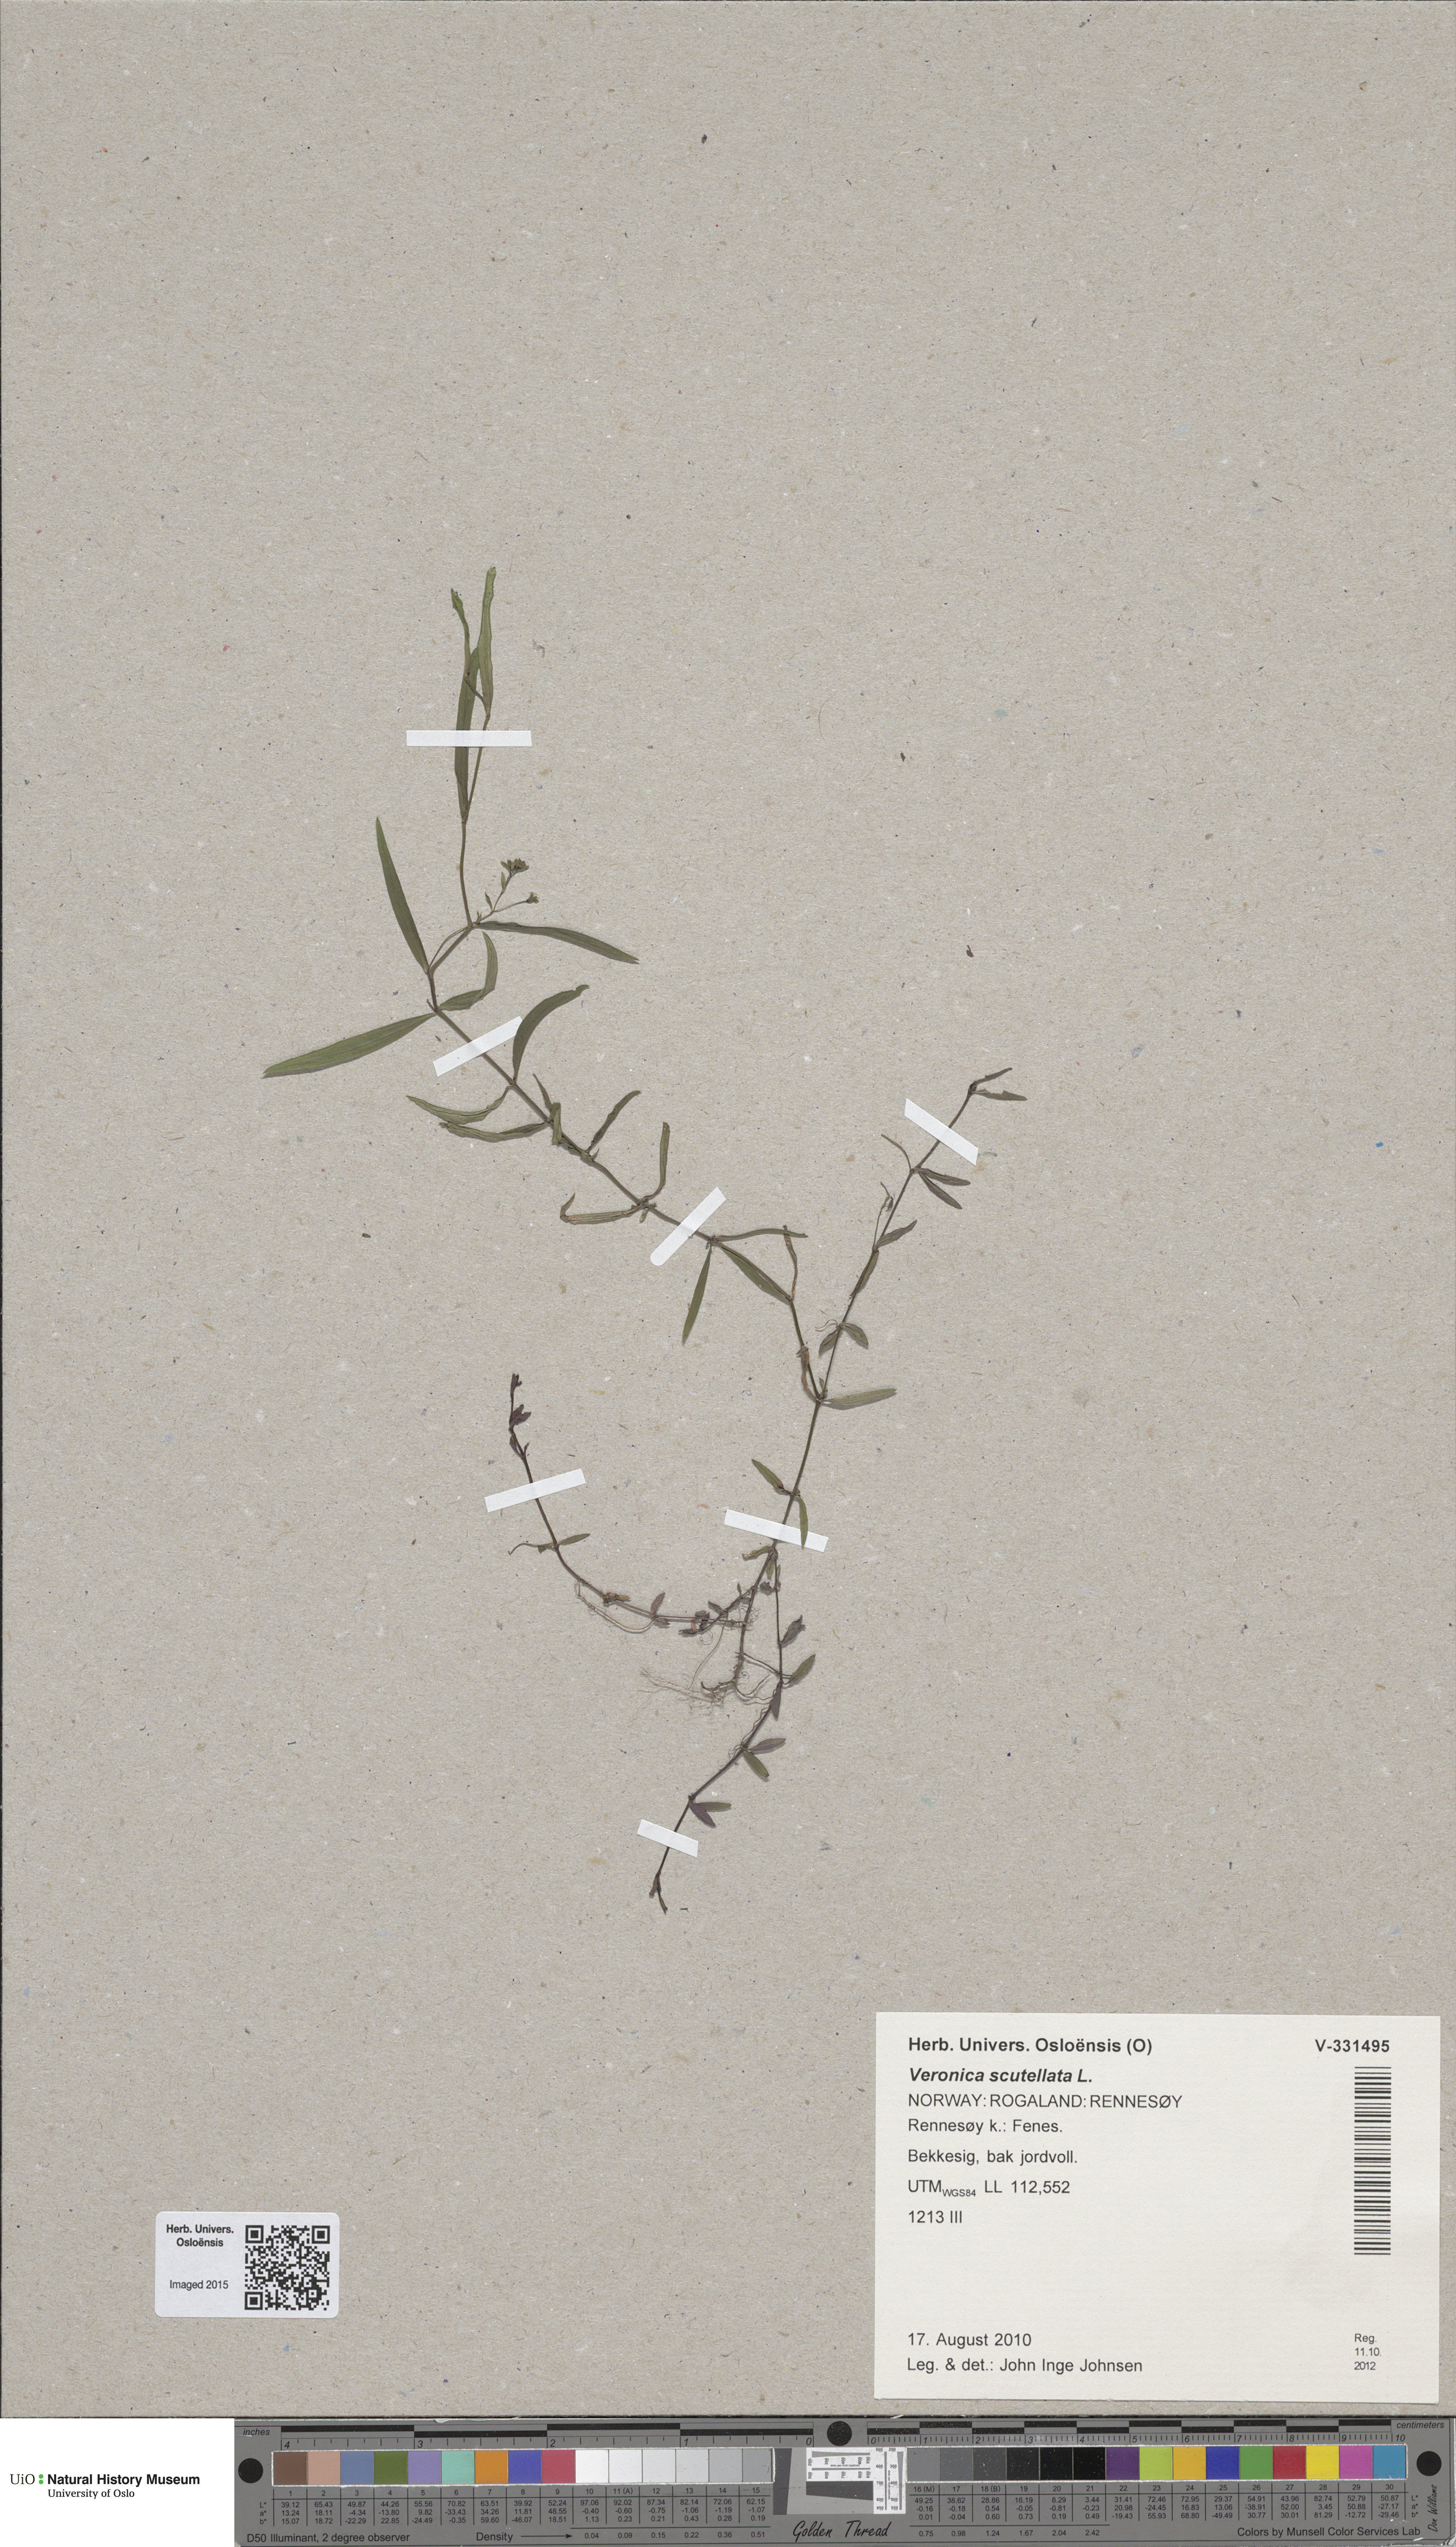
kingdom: Plantae
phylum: Tracheophyta
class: Magnoliopsida
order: Lamiales
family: Plantaginaceae
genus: Veronica
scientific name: Veronica scutellata
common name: Marsh speedwell
